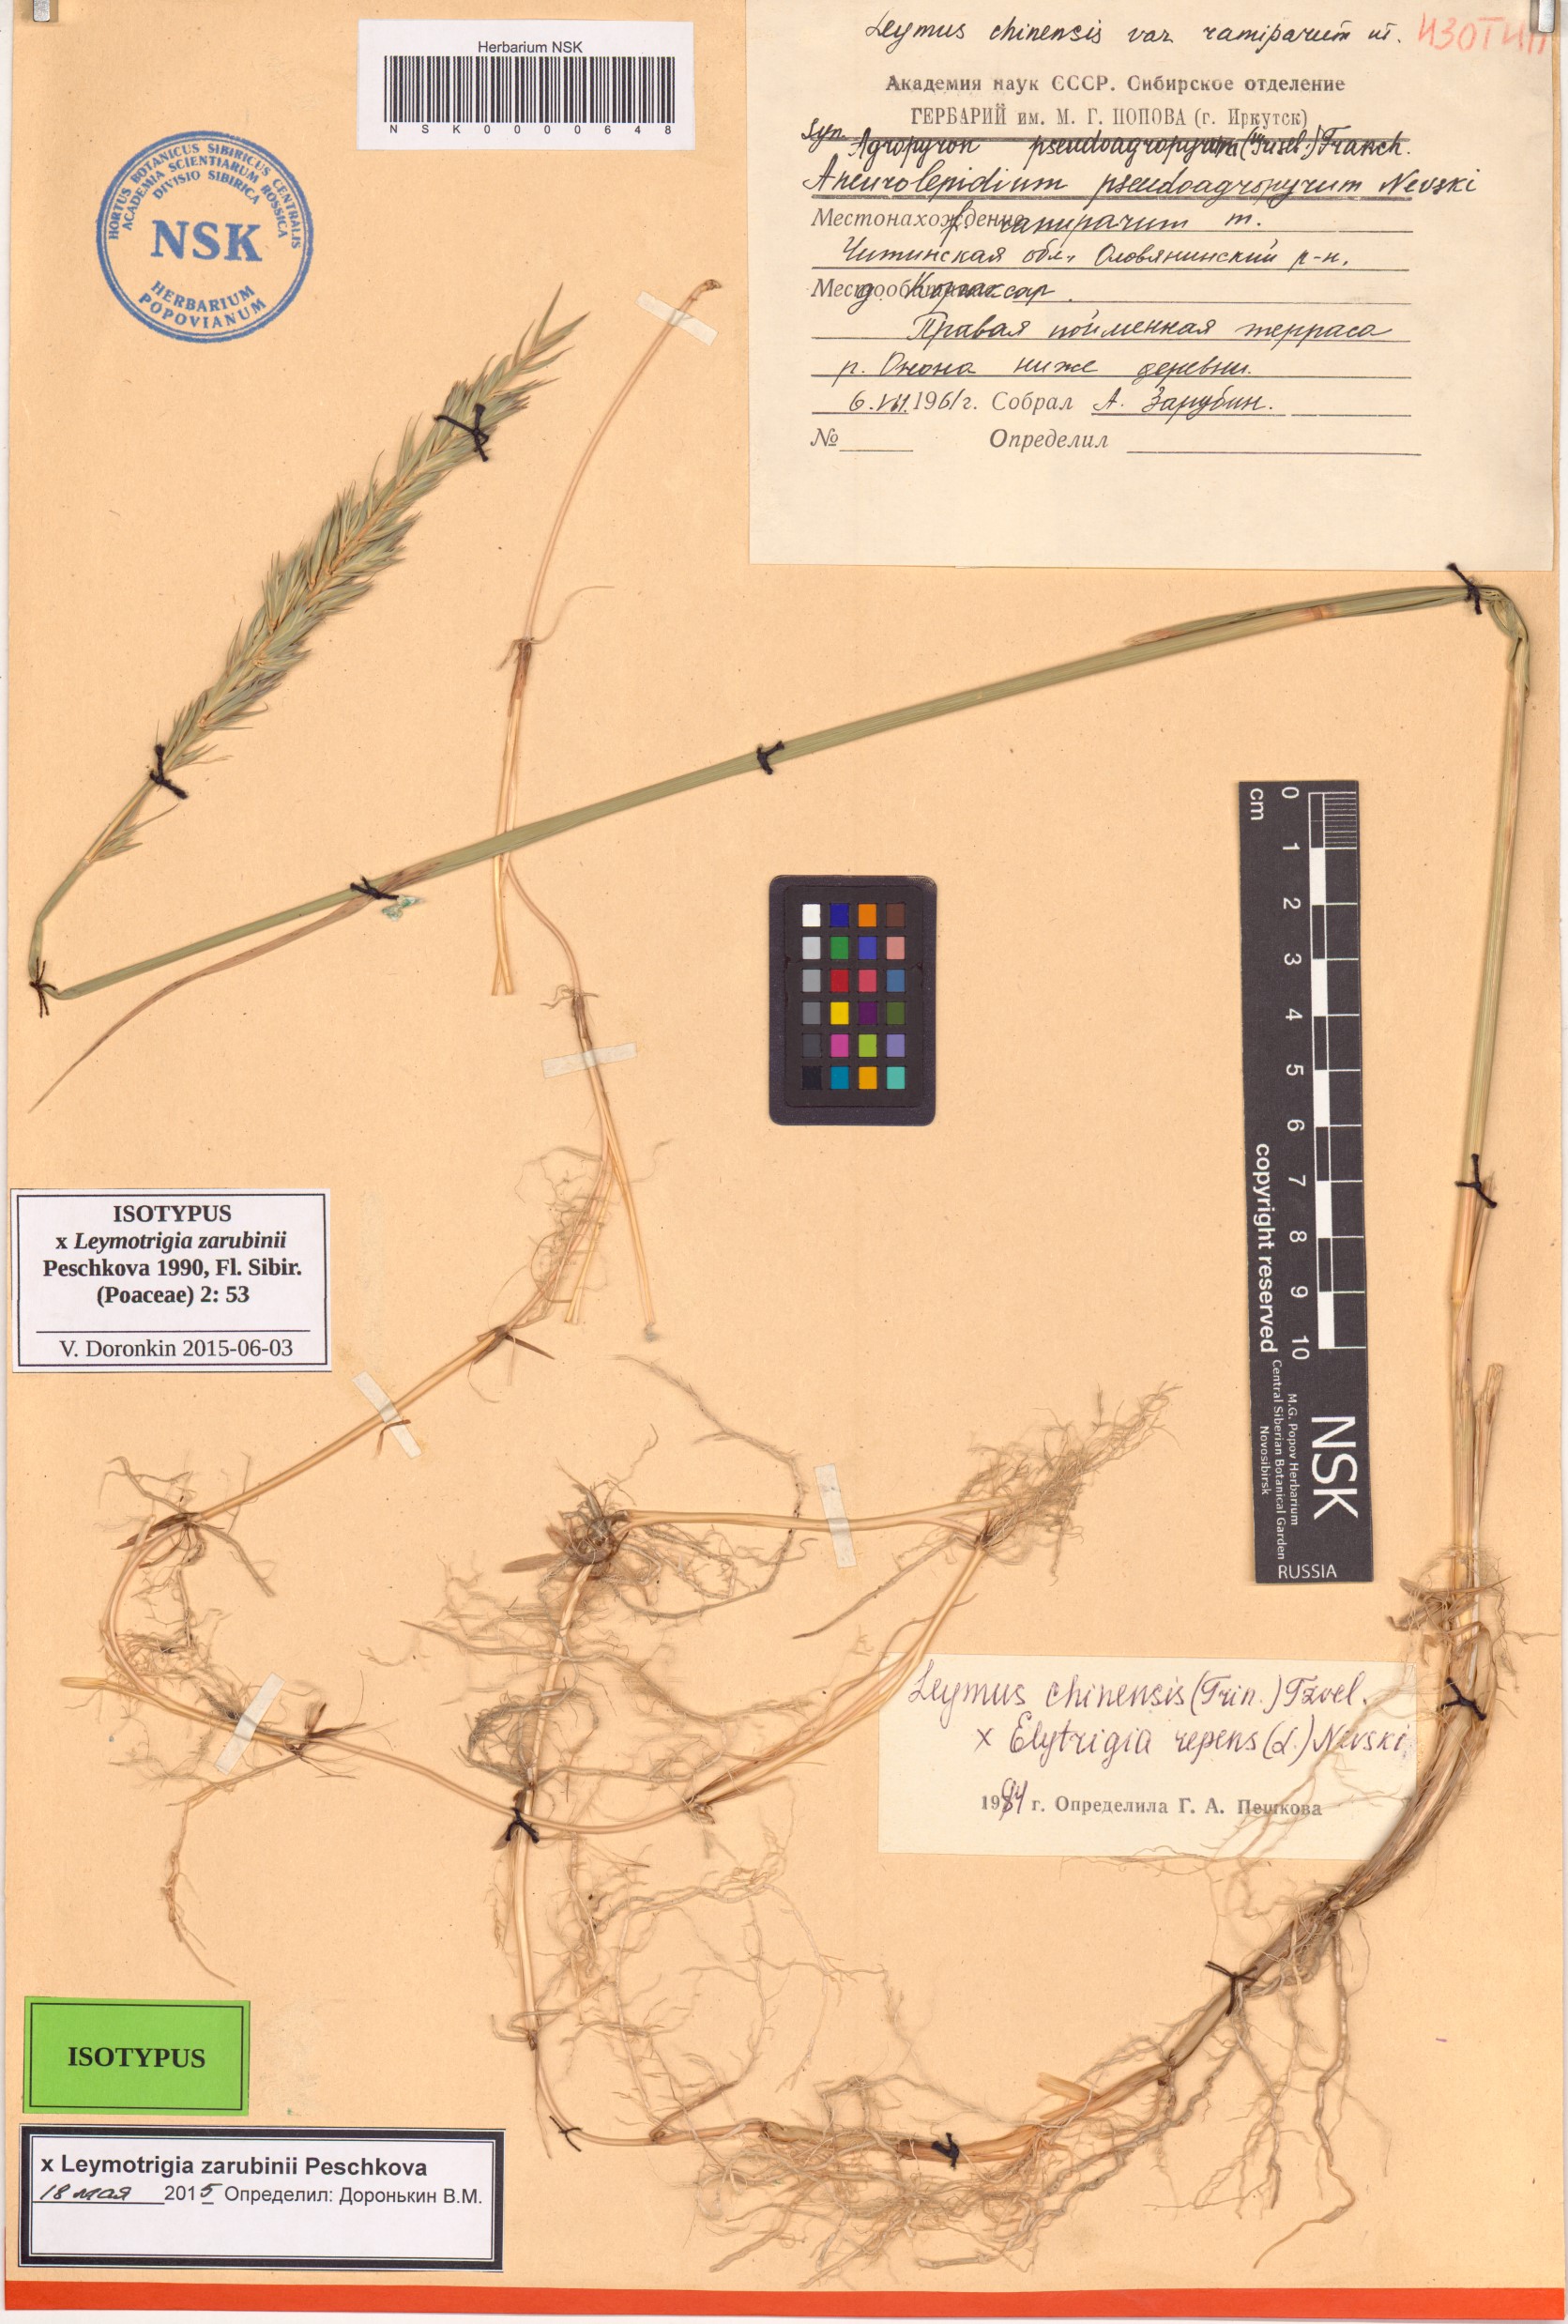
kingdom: Plantae
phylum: Tracheophyta
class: Liliopsida
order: Poales
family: Poaceae
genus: Elyleymus
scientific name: Elyleymus Leymotrigia zarubinii
